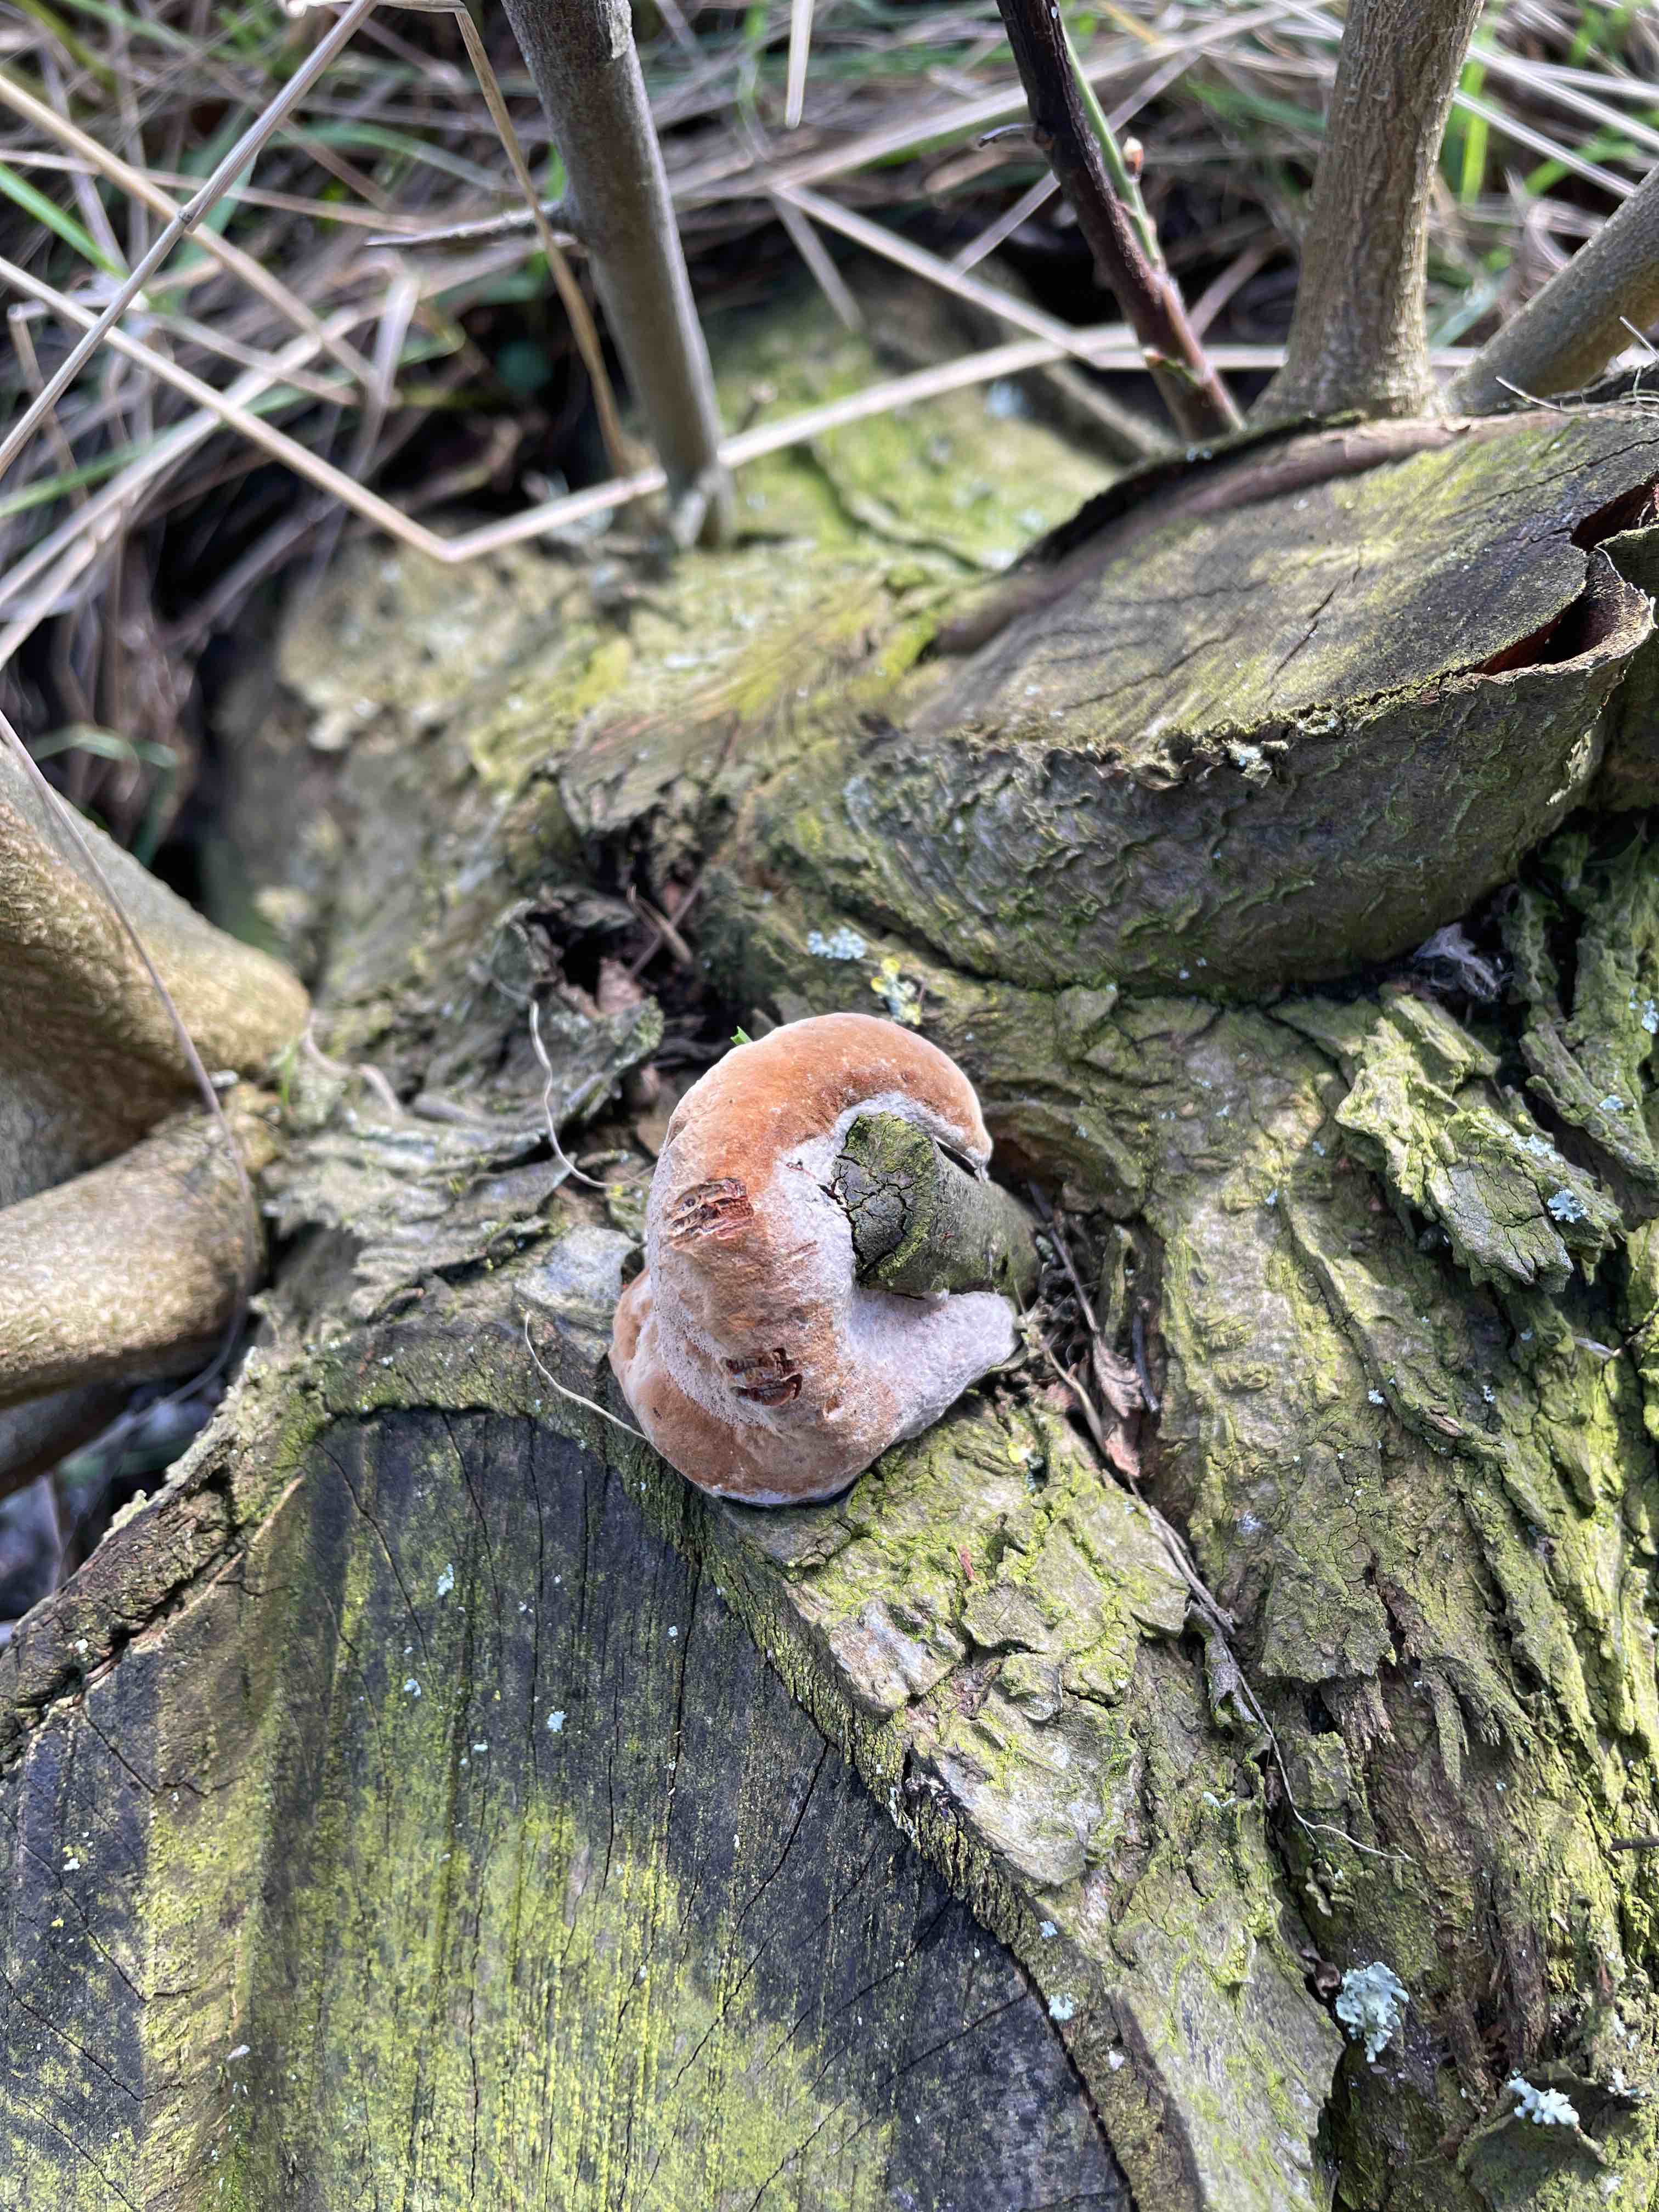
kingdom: Fungi
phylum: Basidiomycota
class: Agaricomycetes
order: Hymenochaetales
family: Hymenochaetaceae
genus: Phellinus
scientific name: Phellinus pomaceus
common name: blomme-ildporesvamp
